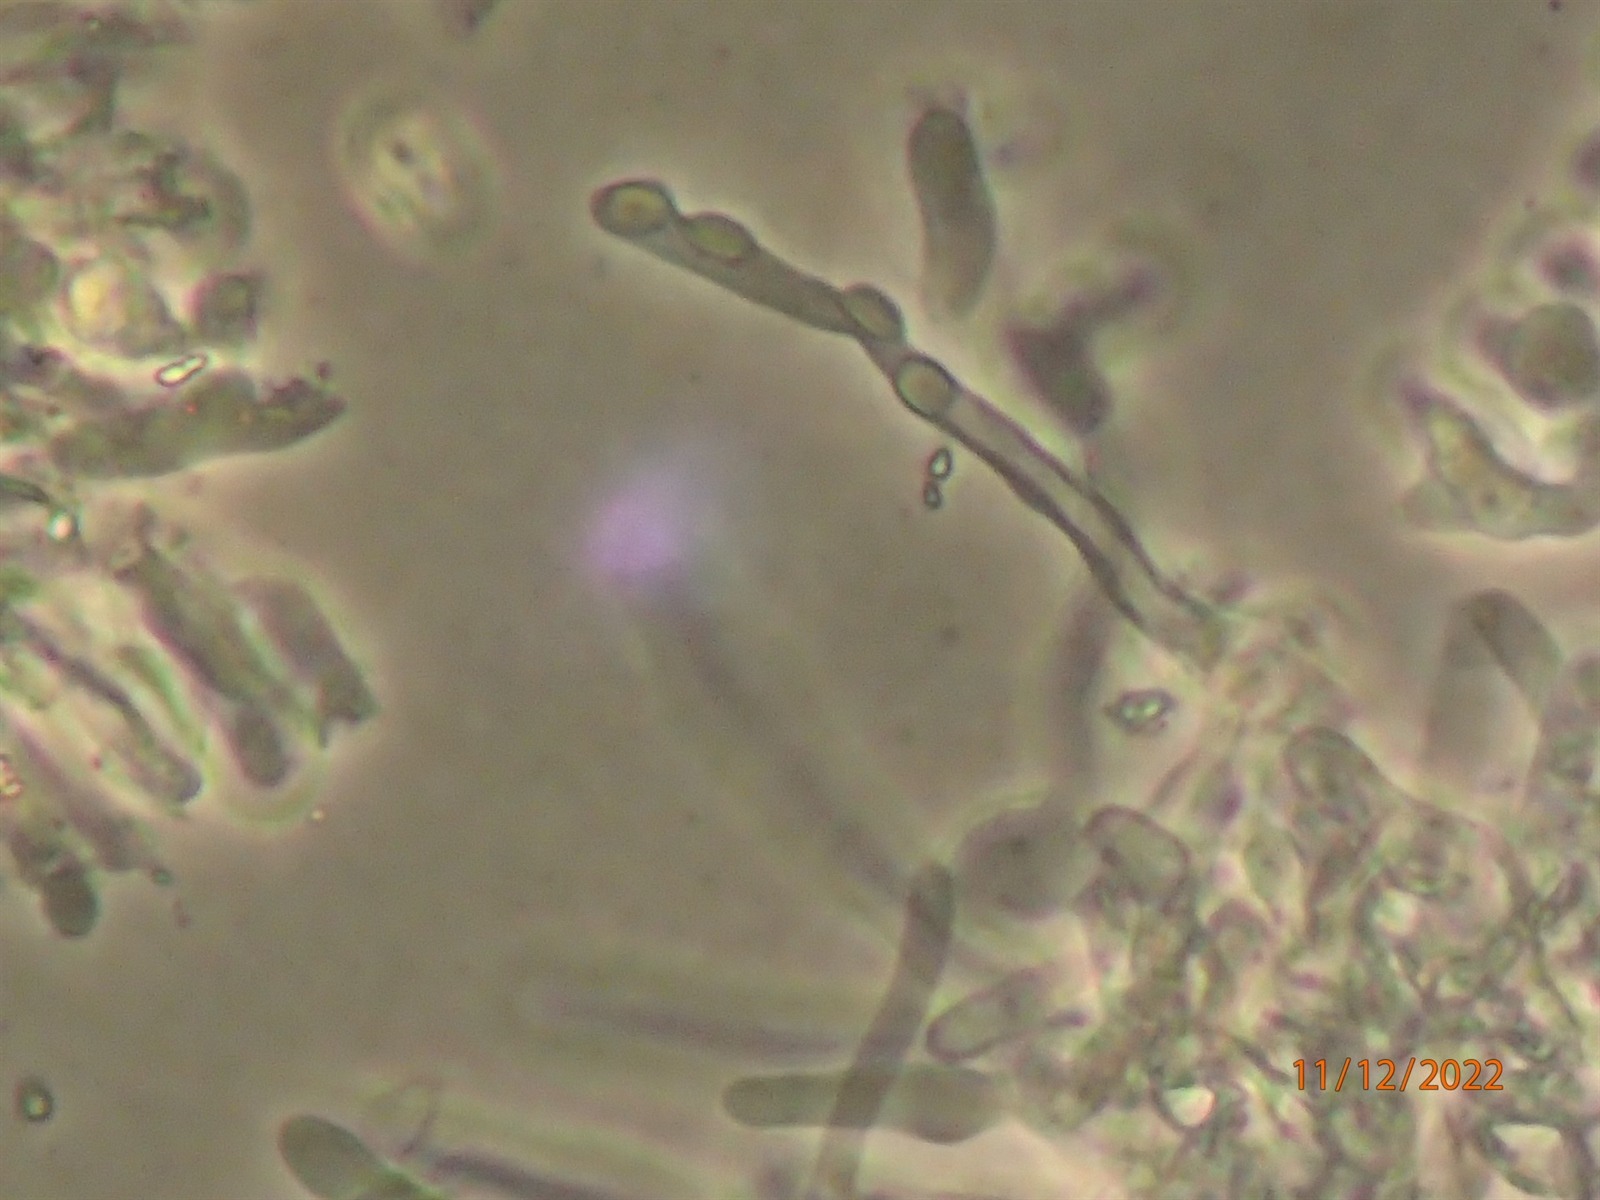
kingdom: Fungi
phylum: Basidiomycota
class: Agaricomycetes
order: Hymenochaetales
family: Rickenellaceae
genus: Bryopistillaria
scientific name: Bryopistillaria sagittiformis
